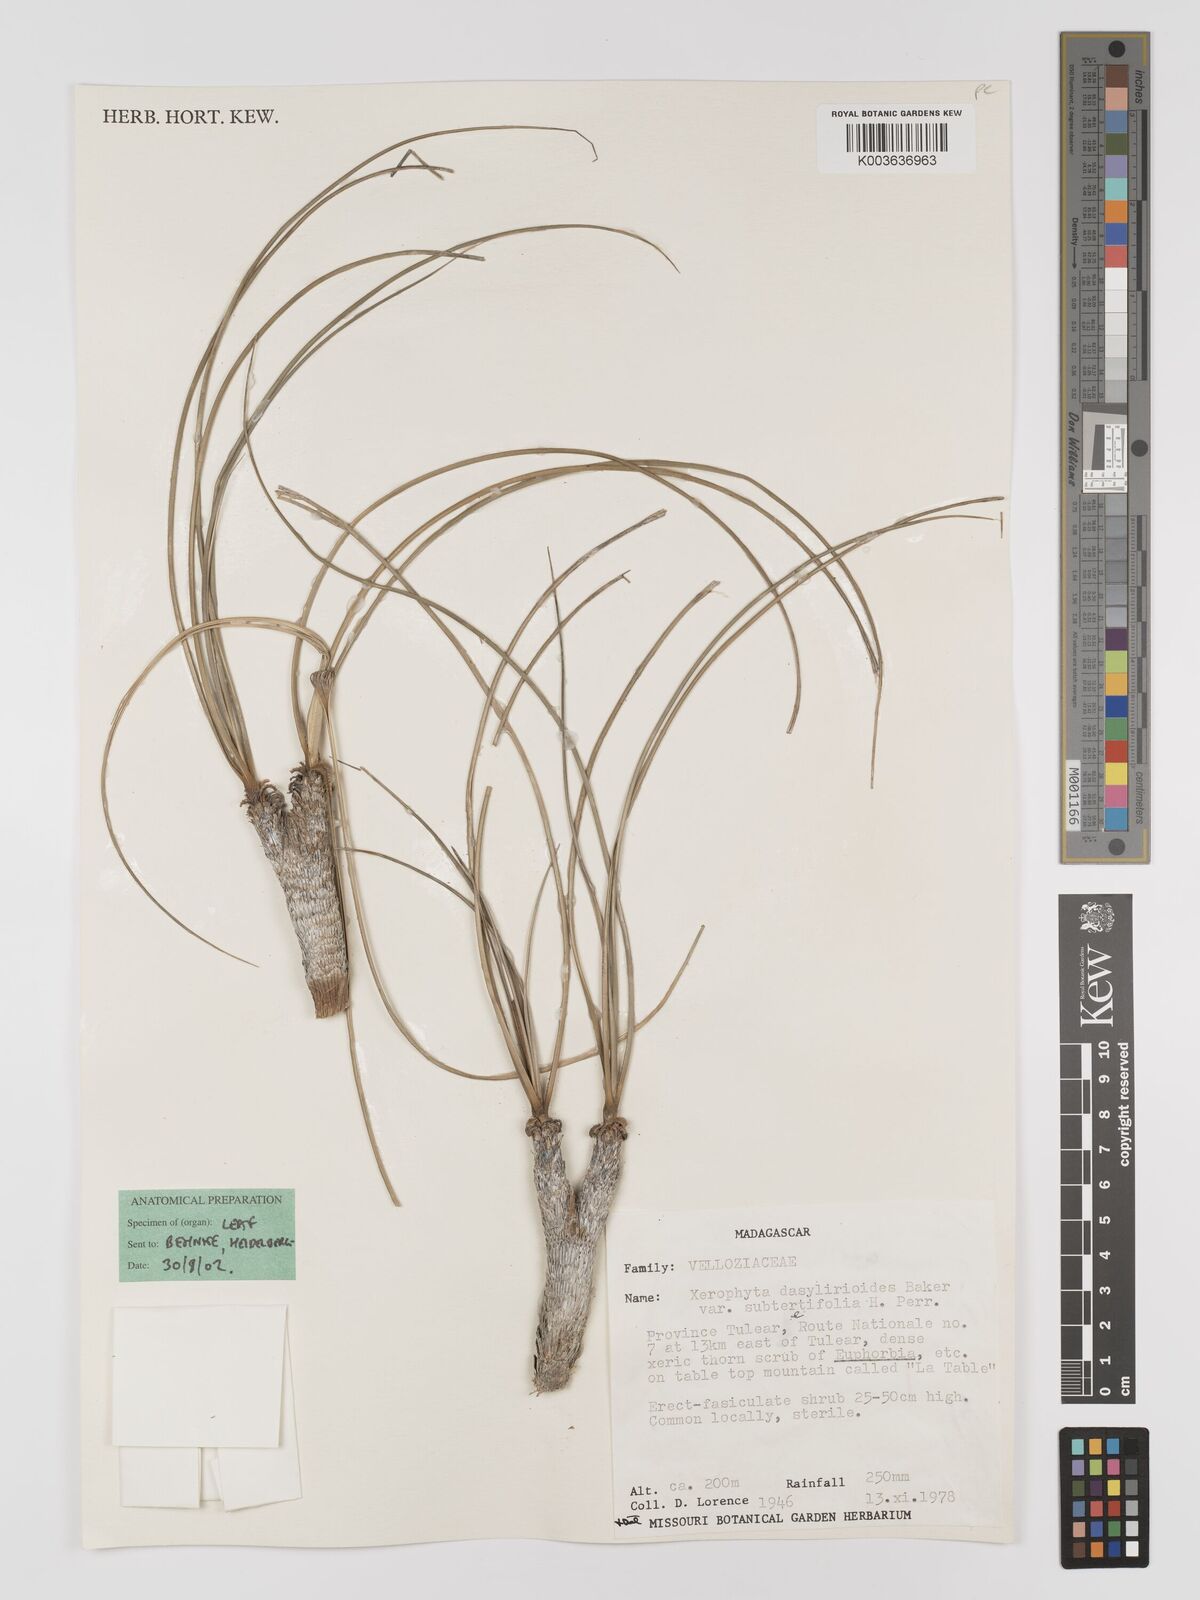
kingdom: Plantae
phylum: Tracheophyta
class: Liliopsida
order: Pandanales
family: Velloziaceae
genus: Xerophyta
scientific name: Xerophyta
